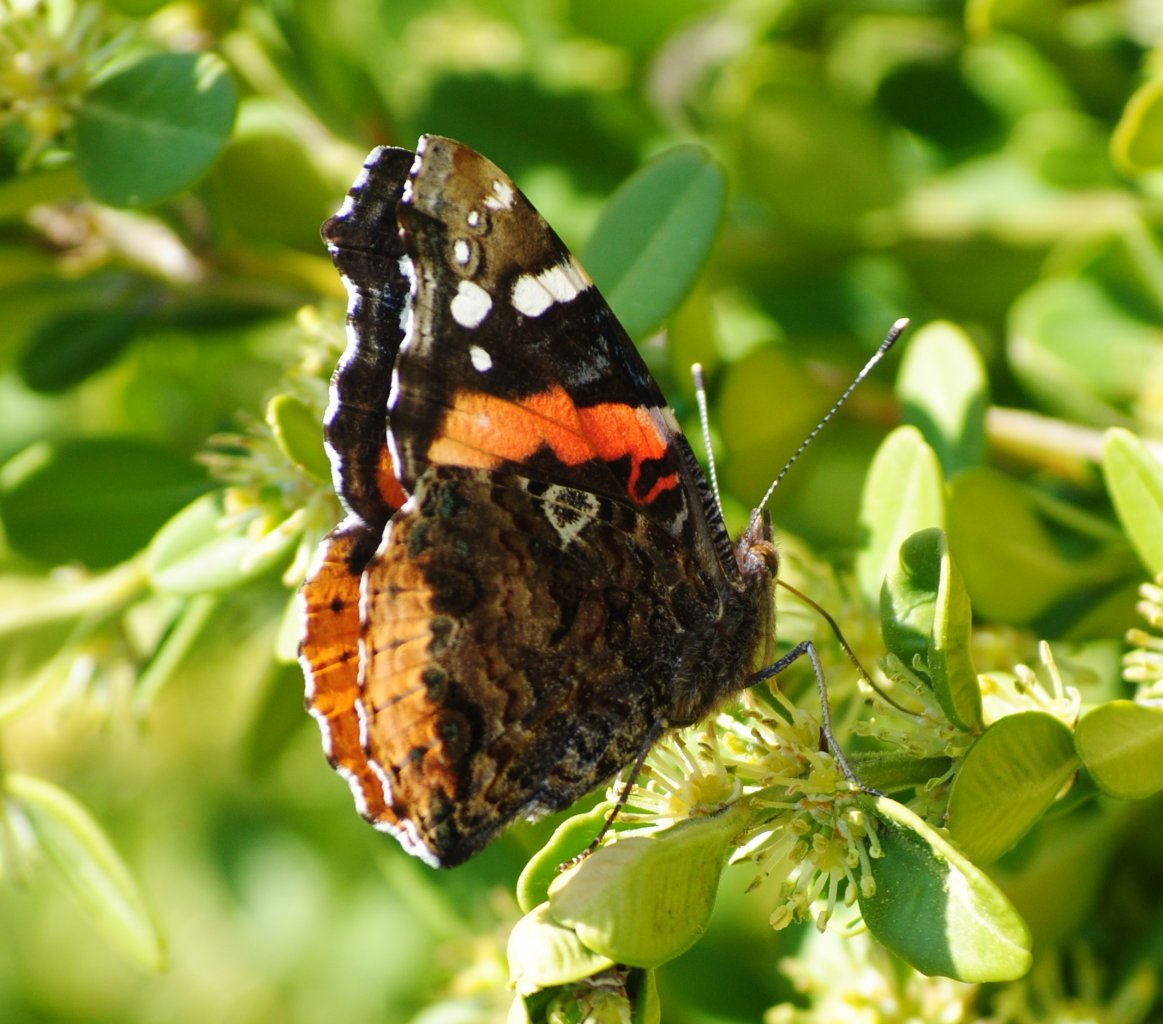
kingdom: Animalia
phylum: Arthropoda
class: Insecta
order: Lepidoptera
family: Nymphalidae
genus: Vanessa
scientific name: Vanessa atalanta
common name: Red Admiral
